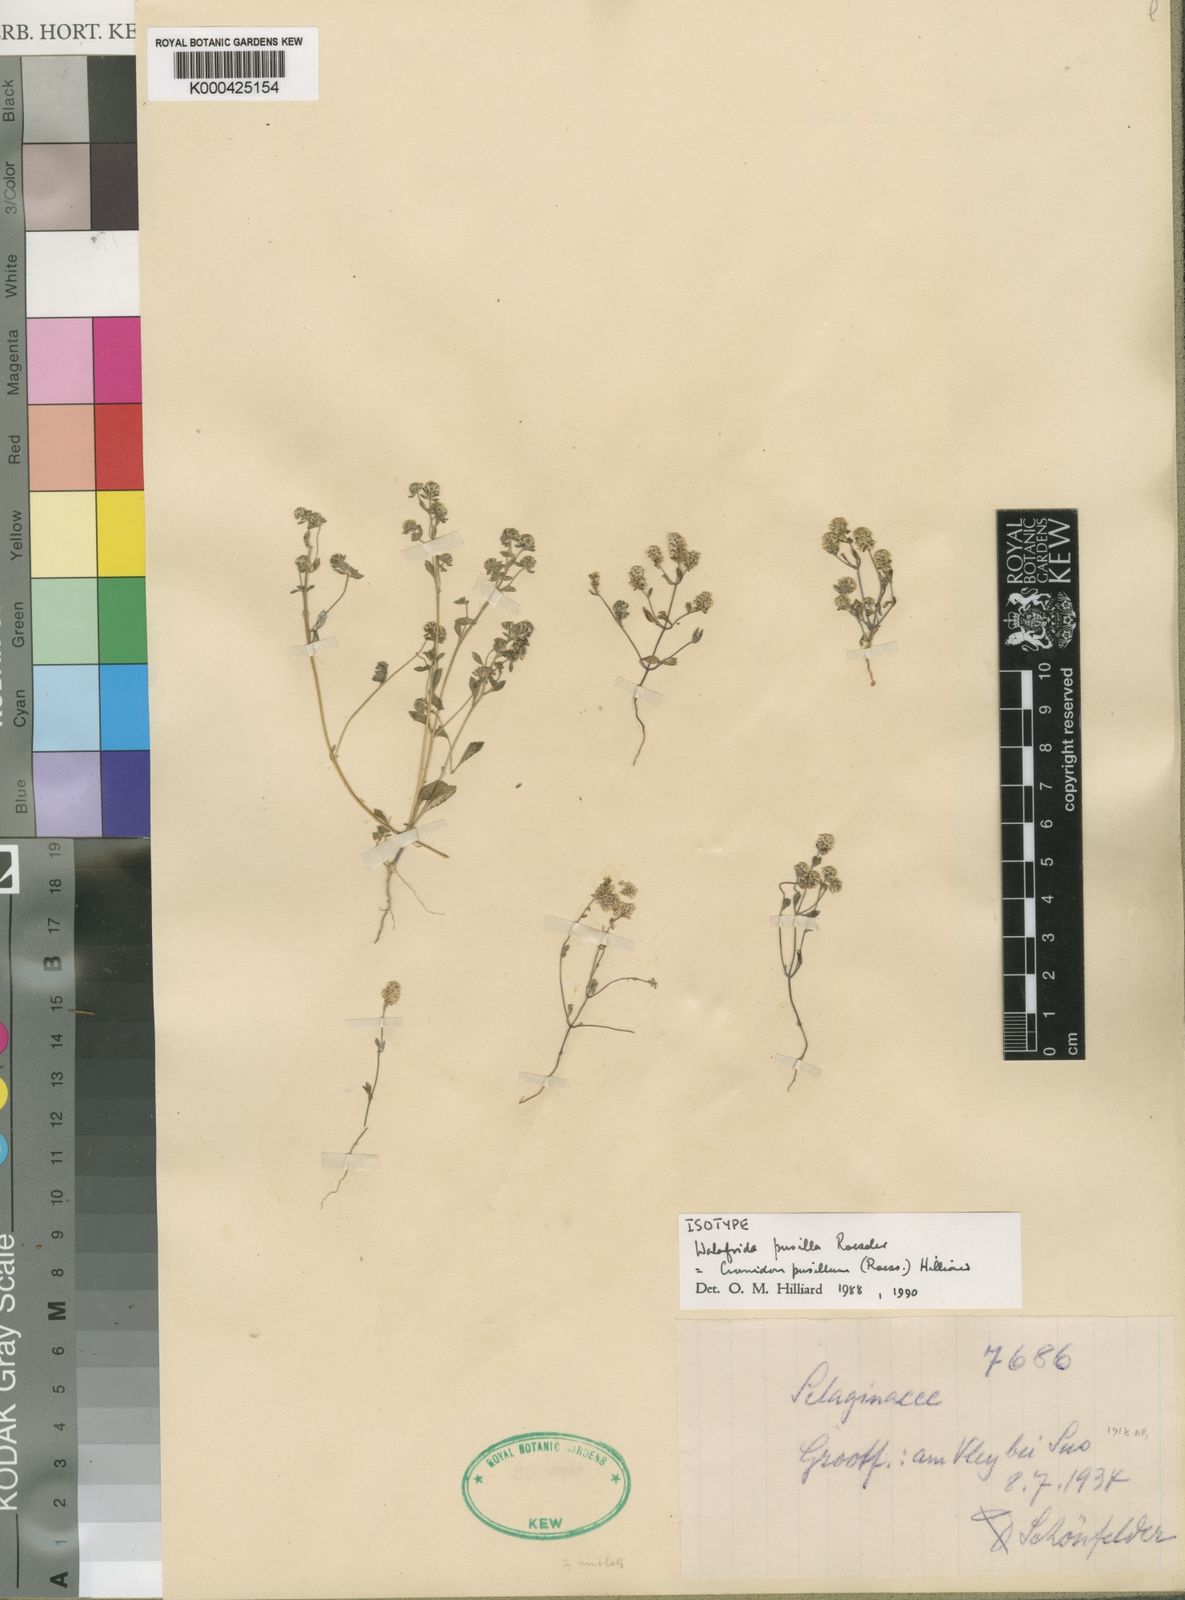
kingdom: Plantae
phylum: Tracheophyta
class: Magnoliopsida
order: Lamiales
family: Scrophulariaceae
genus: Cromidon
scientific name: Cromidon pusillum
